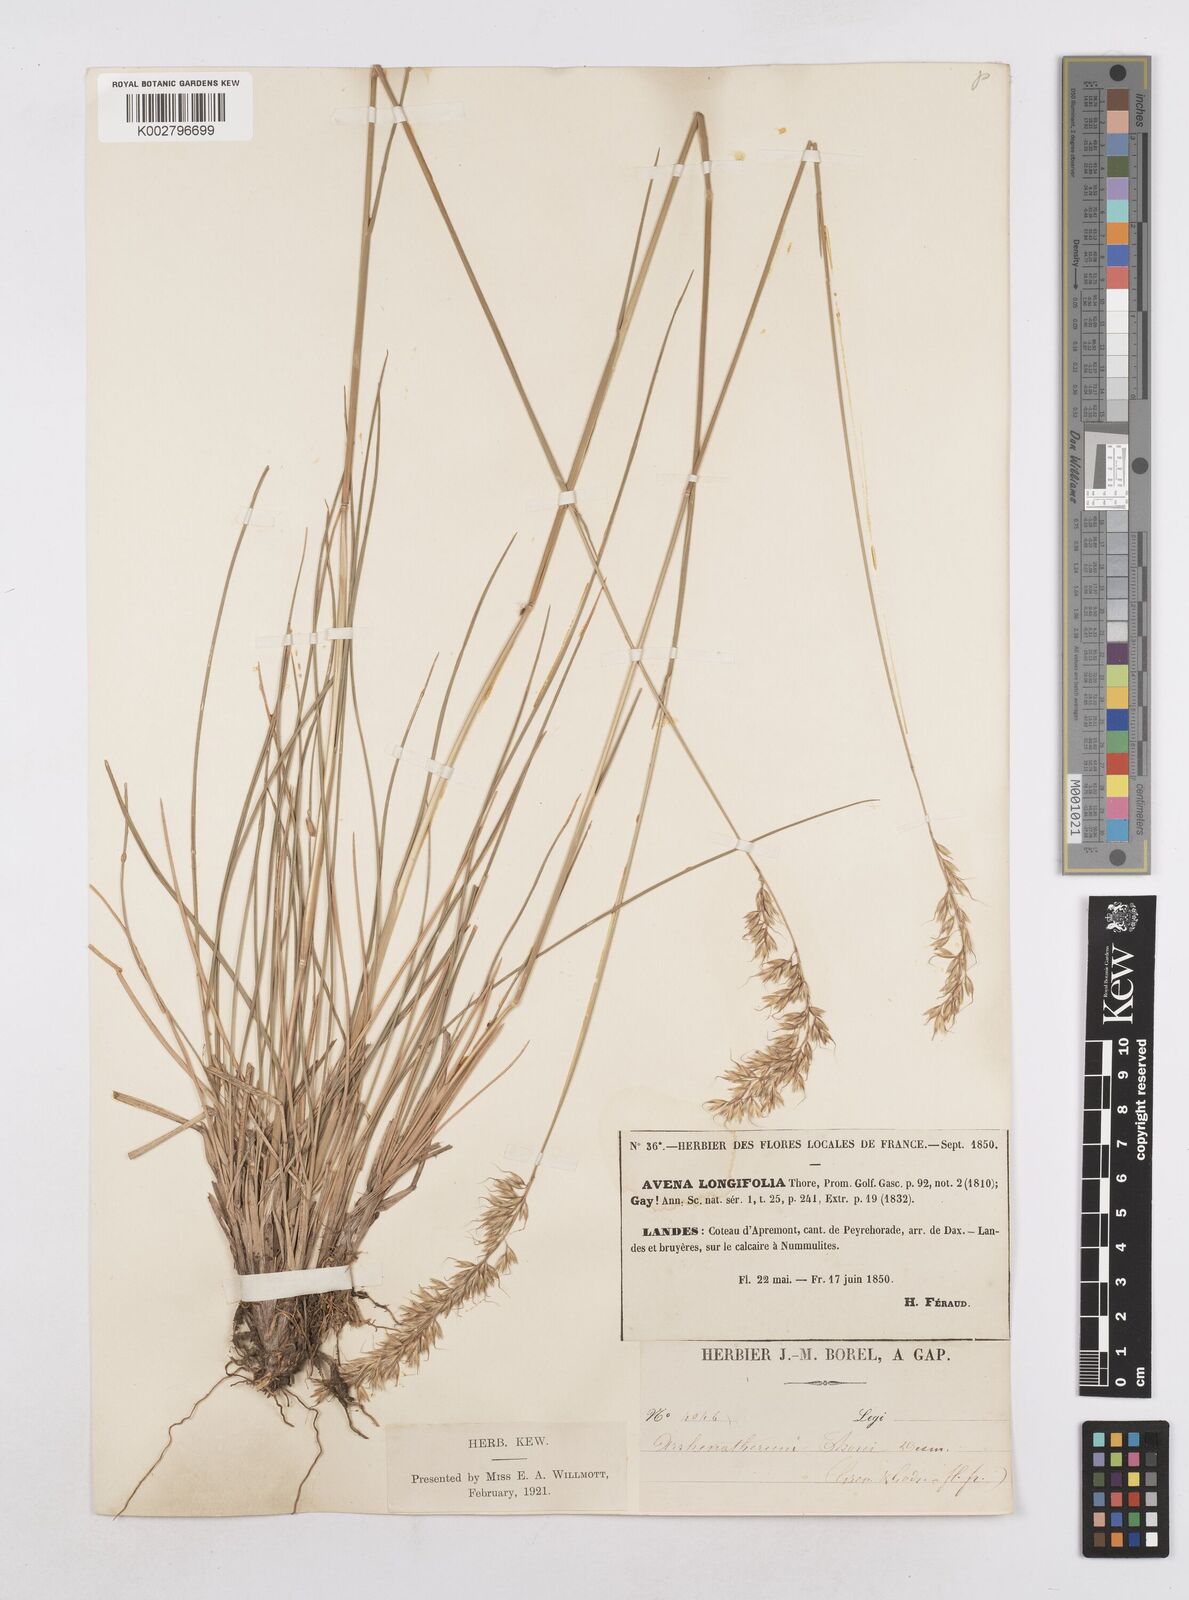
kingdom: Plantae
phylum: Tracheophyta
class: Liliopsida
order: Poales
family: Poaceae
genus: Arrhenatherum
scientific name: Arrhenatherum longifolium
